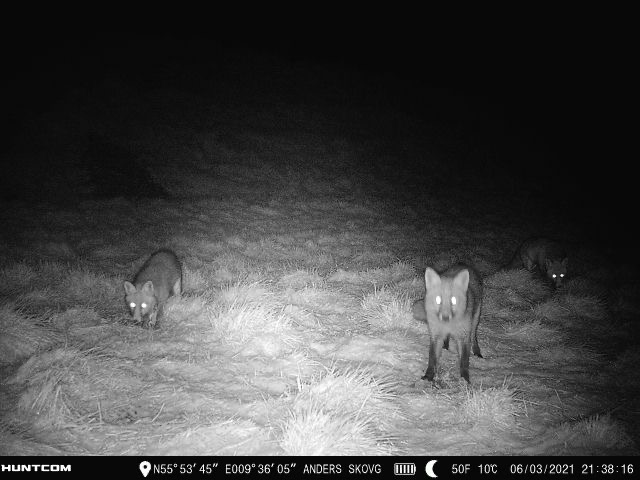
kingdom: Animalia
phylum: Chordata
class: Mammalia
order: Carnivora
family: Canidae
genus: Vulpes
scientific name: Vulpes vulpes
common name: Ræv
